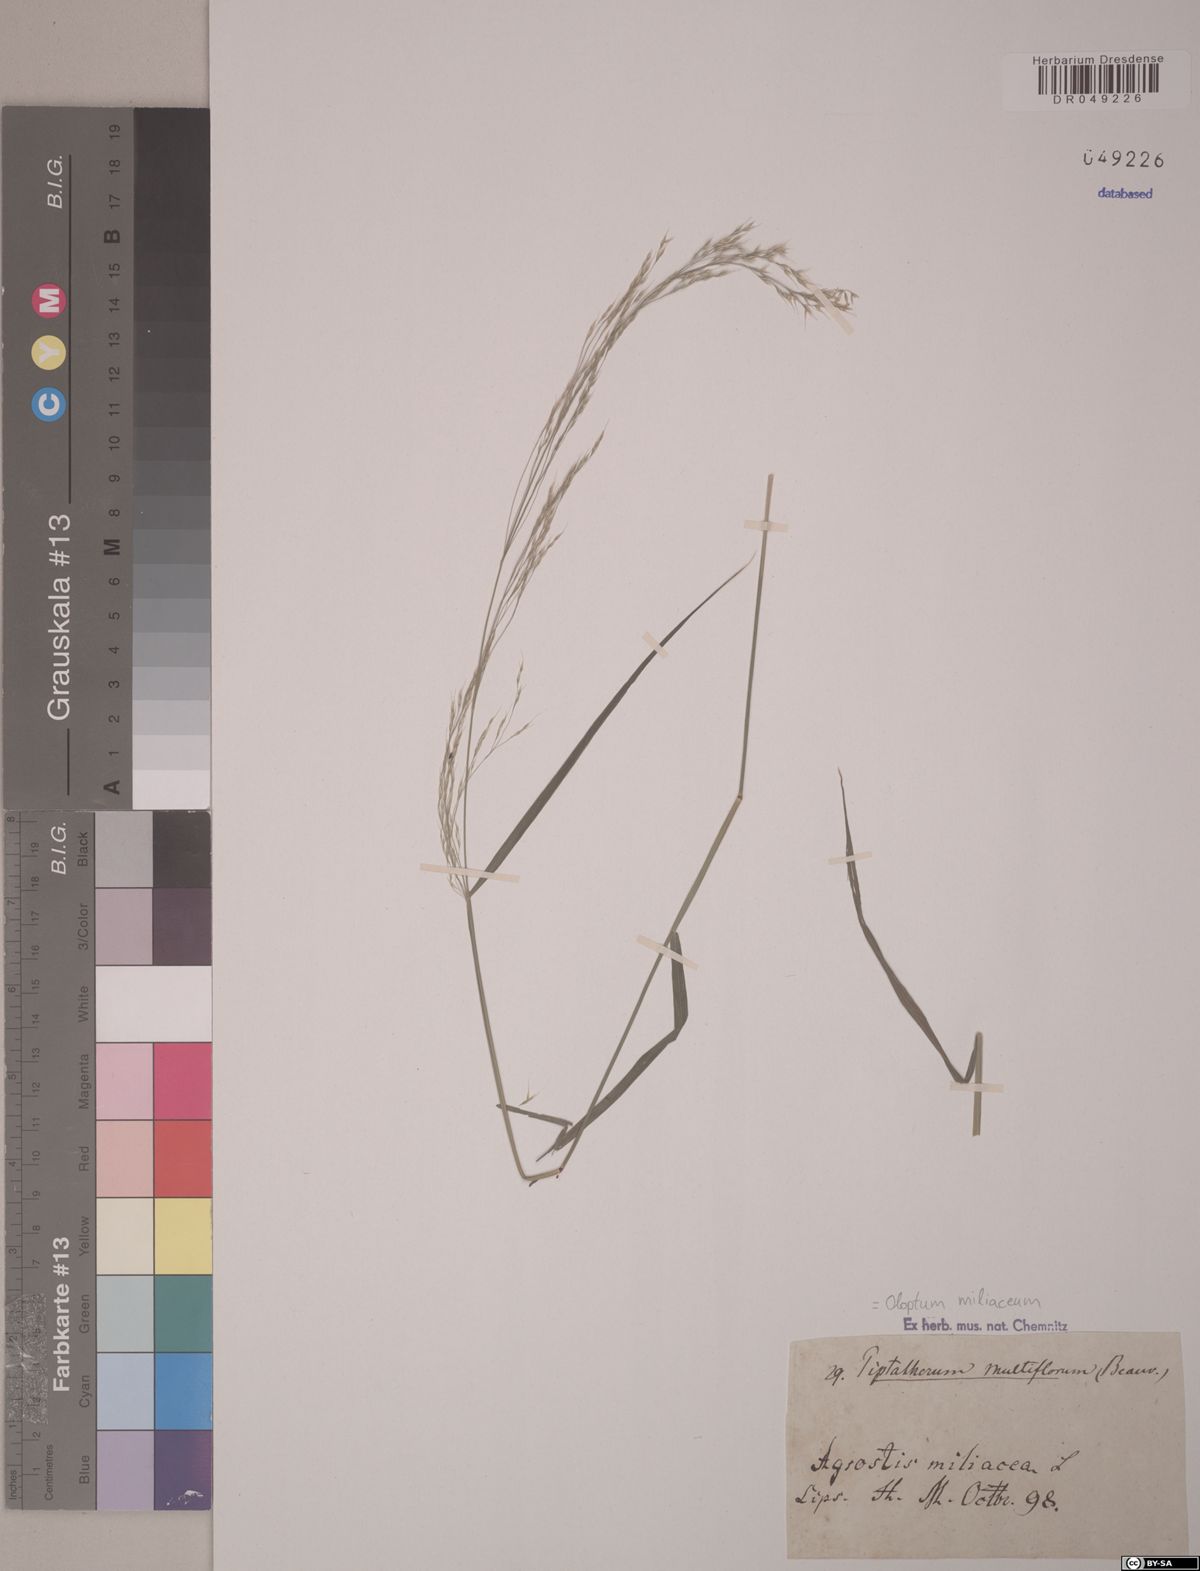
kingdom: Plantae
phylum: Tracheophyta
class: Liliopsida
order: Poales
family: Poaceae
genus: Oloptum
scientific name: Oloptum miliaceum
